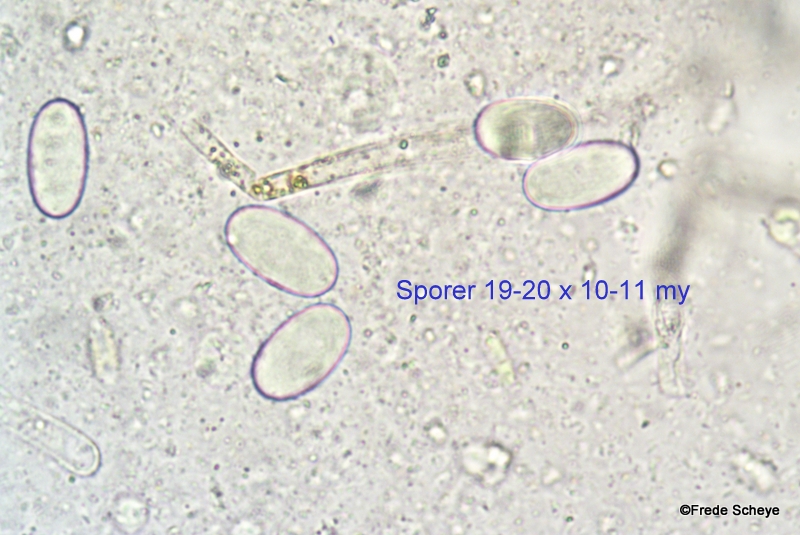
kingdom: Fungi
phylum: Ascomycota
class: Pezizomycetes
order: Pezizales
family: Pyronemataceae
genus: Cheilymenia
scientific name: Cheilymenia granulata
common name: møgbæger
